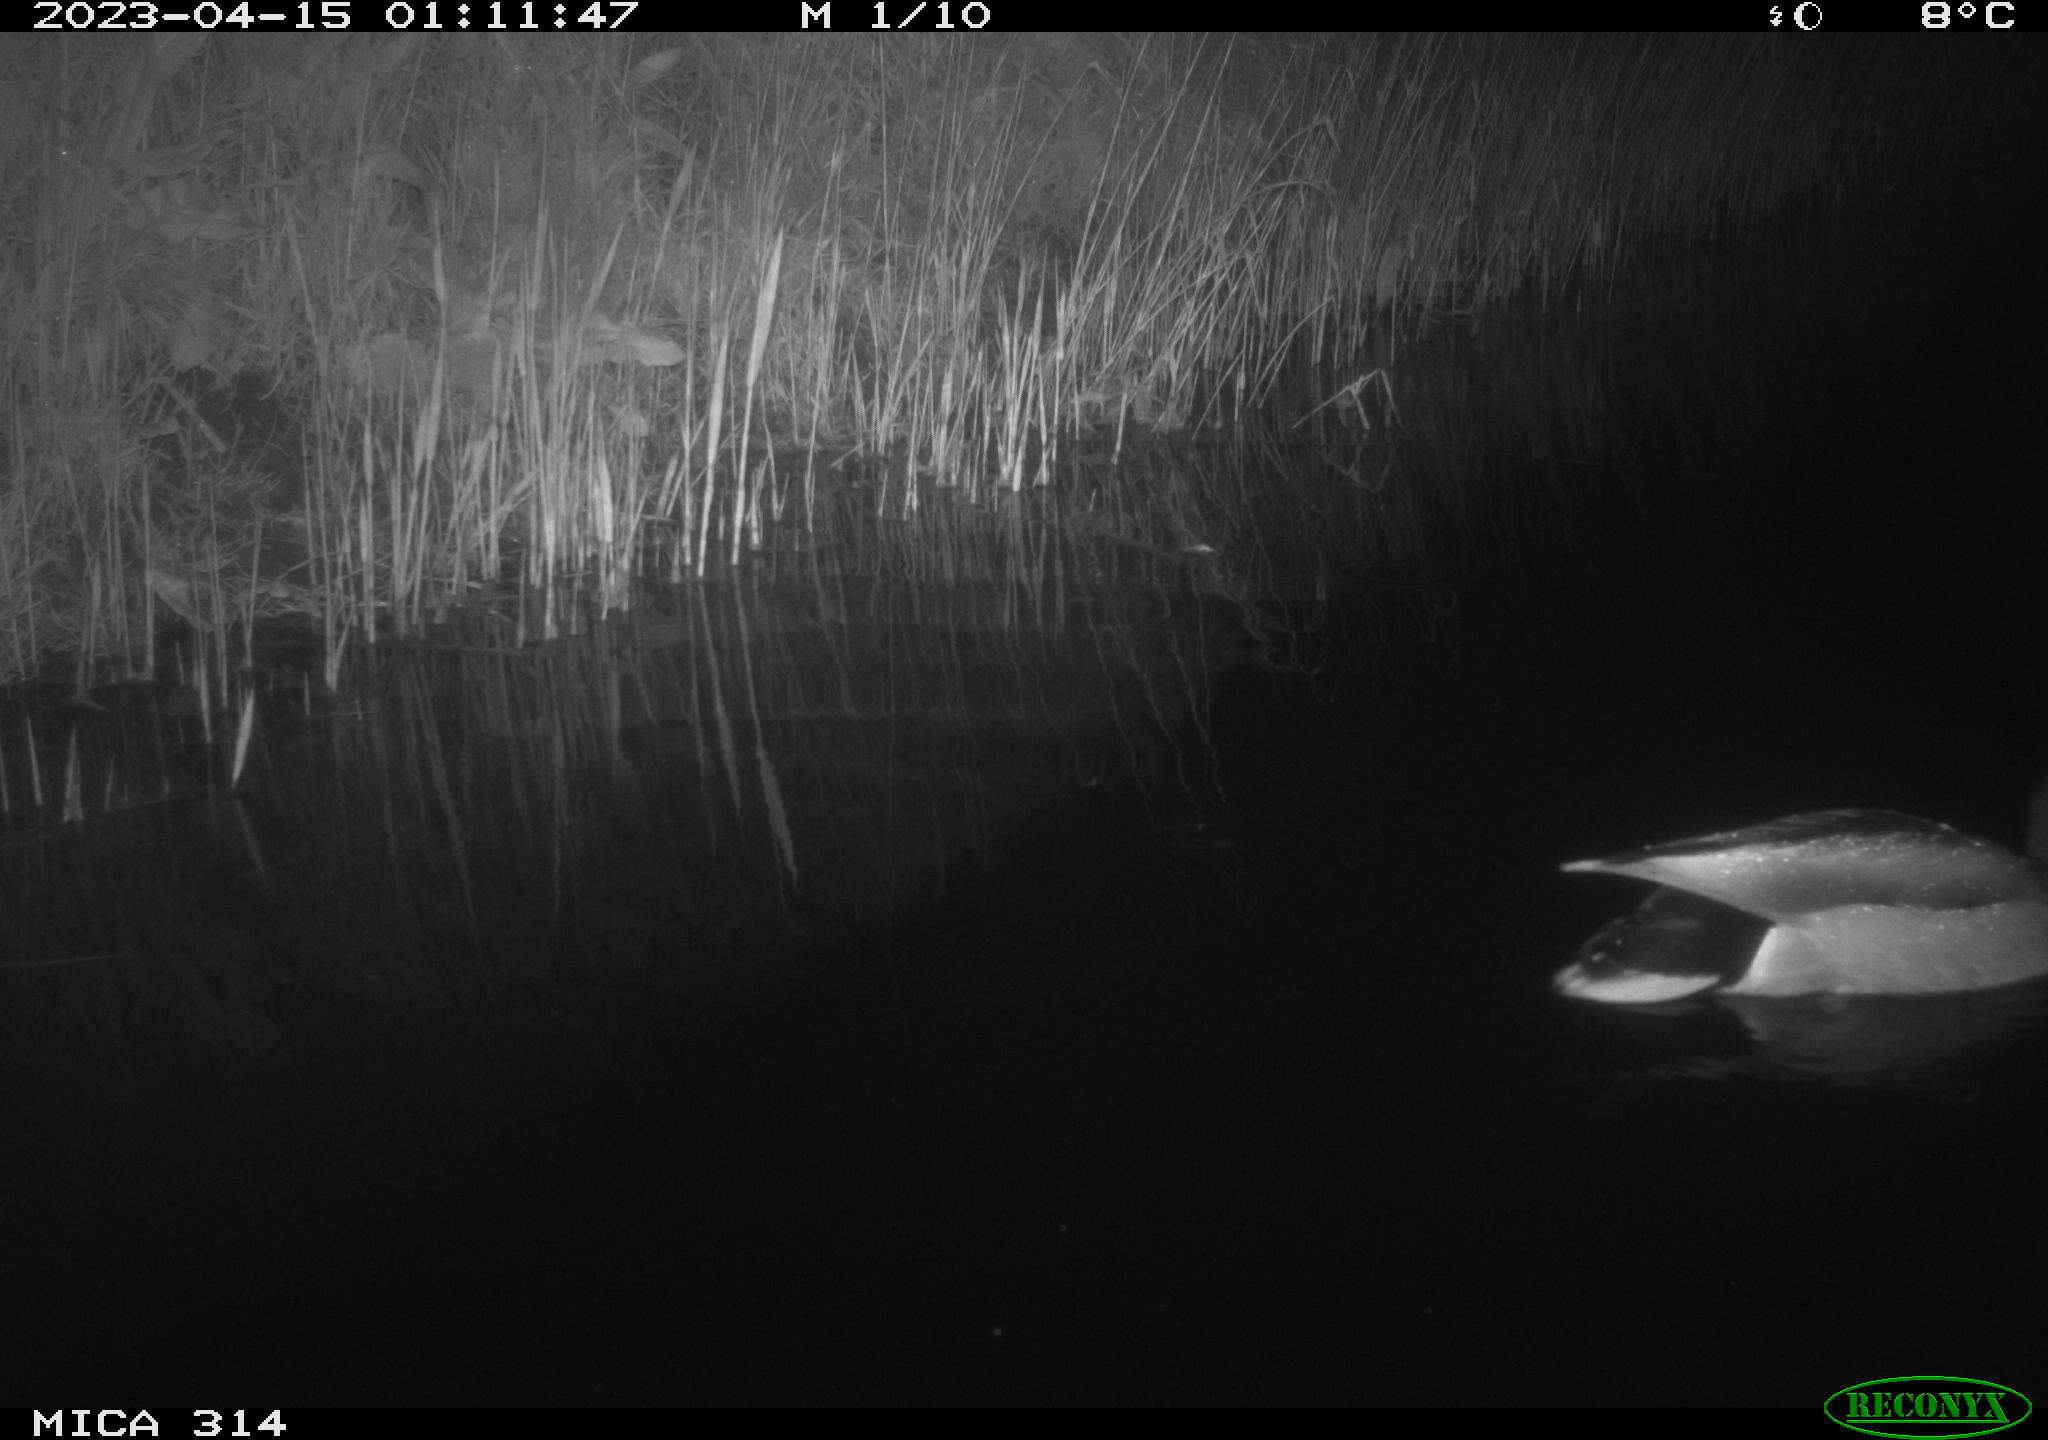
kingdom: Animalia
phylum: Chordata
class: Aves
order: Anseriformes
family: Anatidae
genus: Anas
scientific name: Anas
